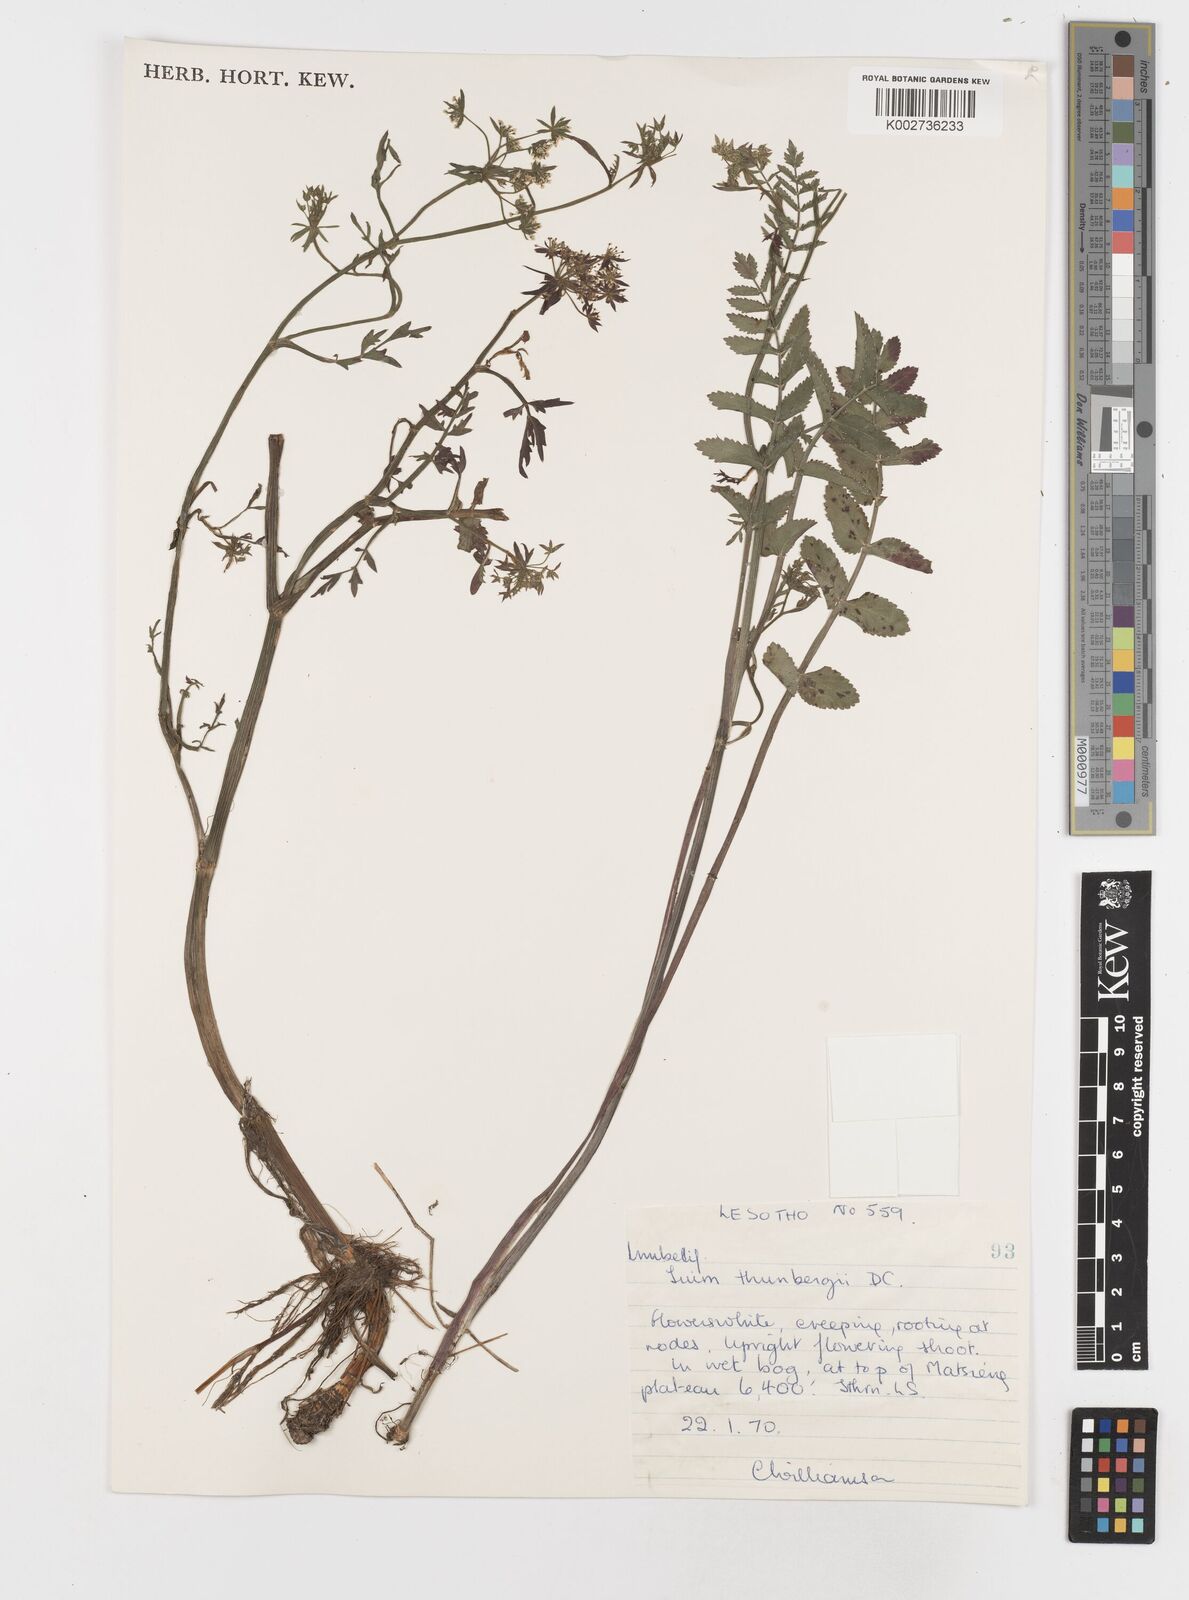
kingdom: Plantae
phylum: Tracheophyta
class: Magnoliopsida
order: Apiales
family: Apiaceae
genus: Berula
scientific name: Berula erecta
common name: Lesser water-parsnip
